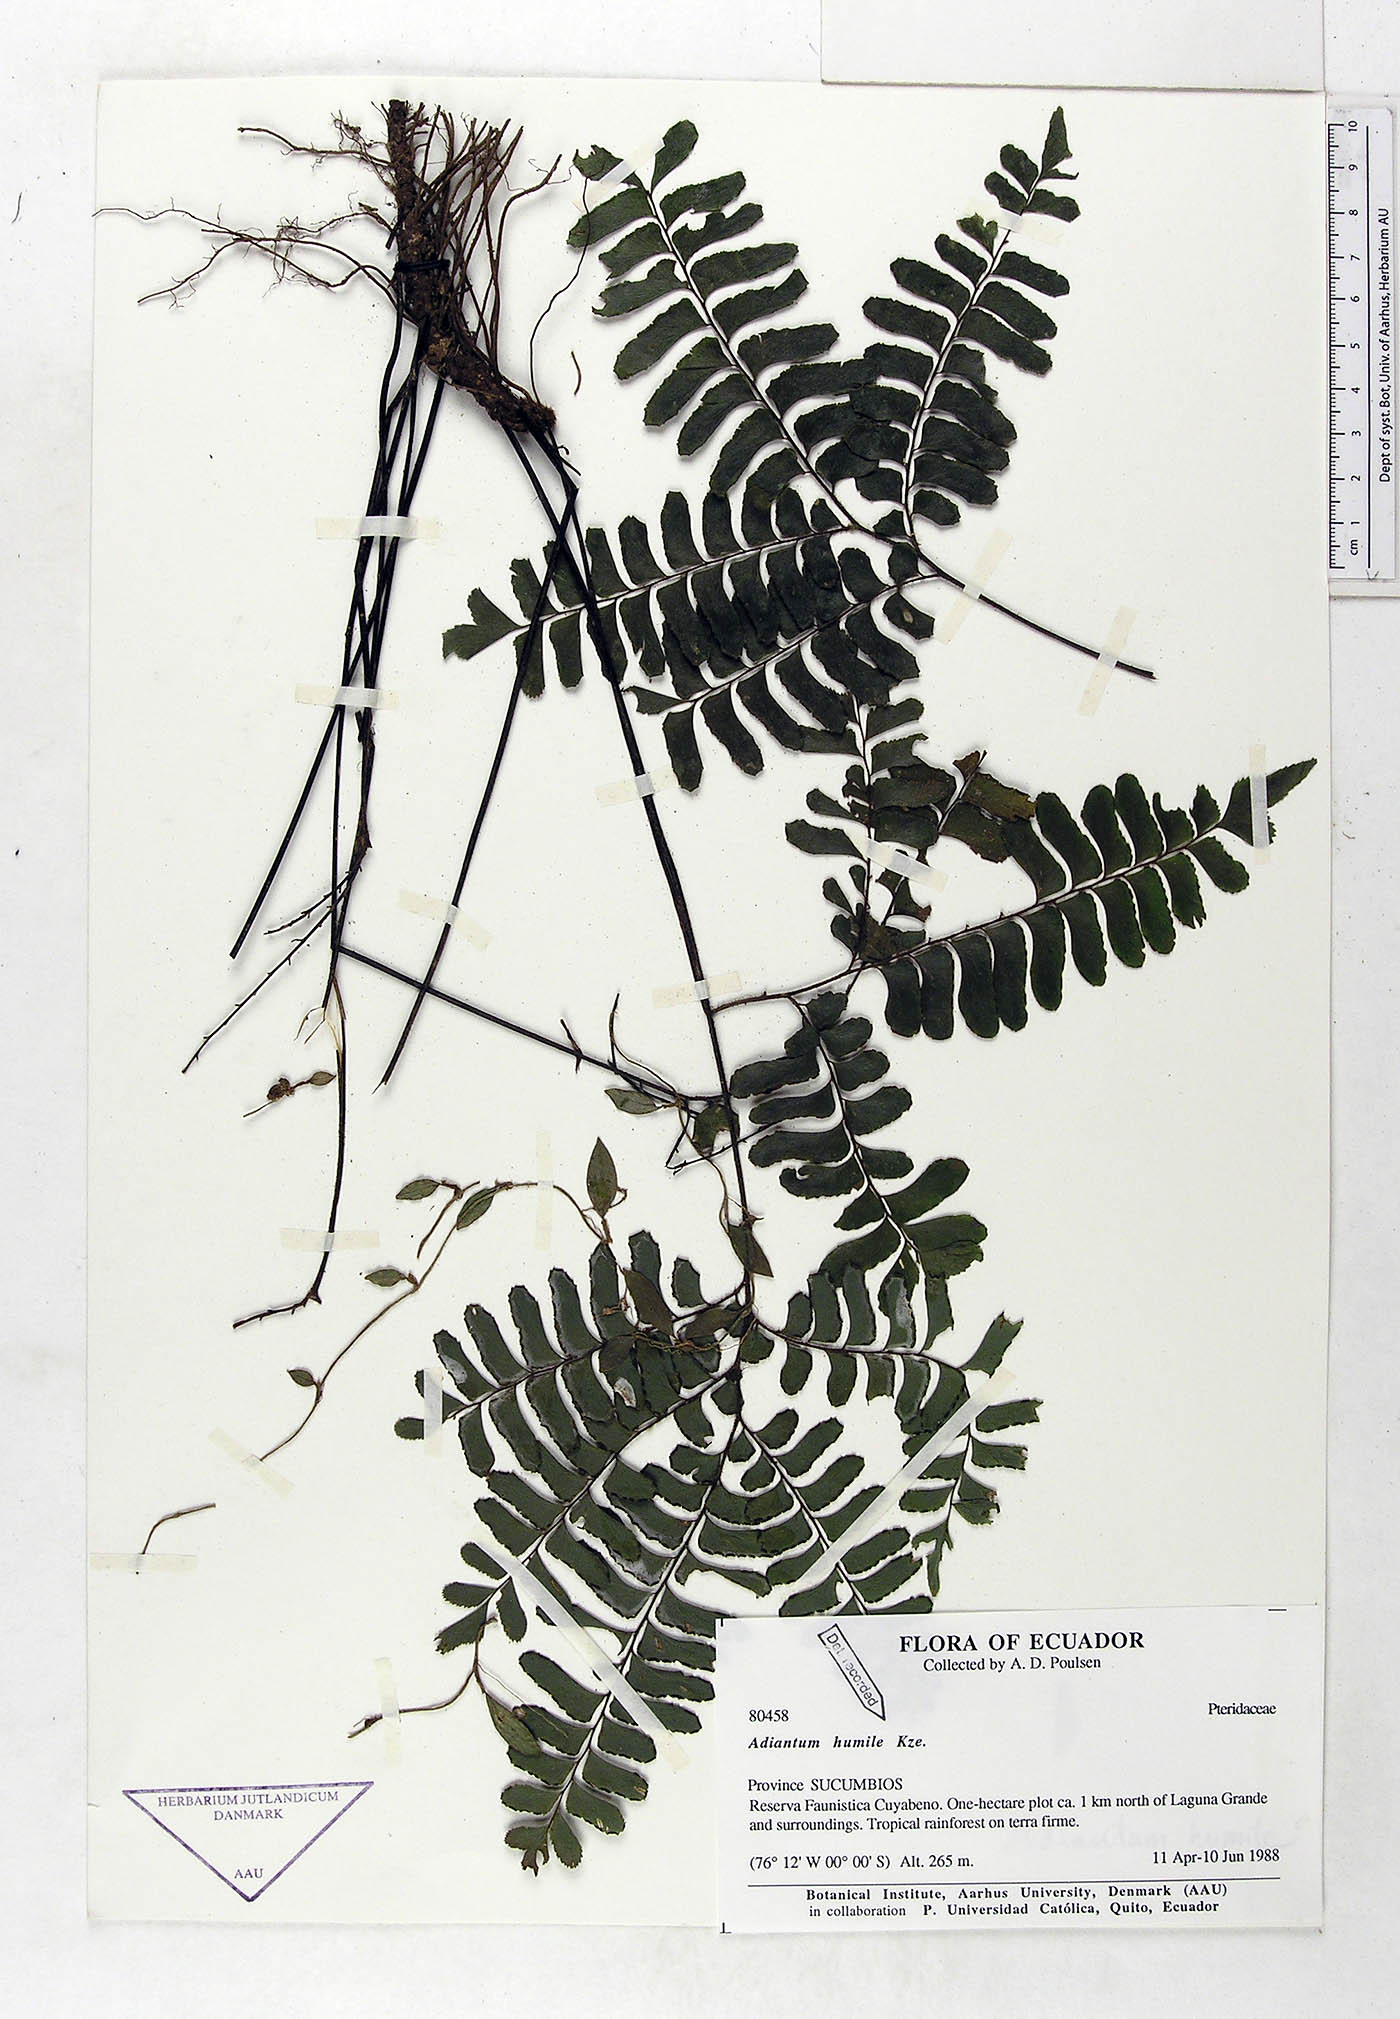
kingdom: Plantae
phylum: Tracheophyta
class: Polypodiopsida
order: Polypodiales
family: Pteridaceae
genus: Adiantum
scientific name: Adiantum humile
